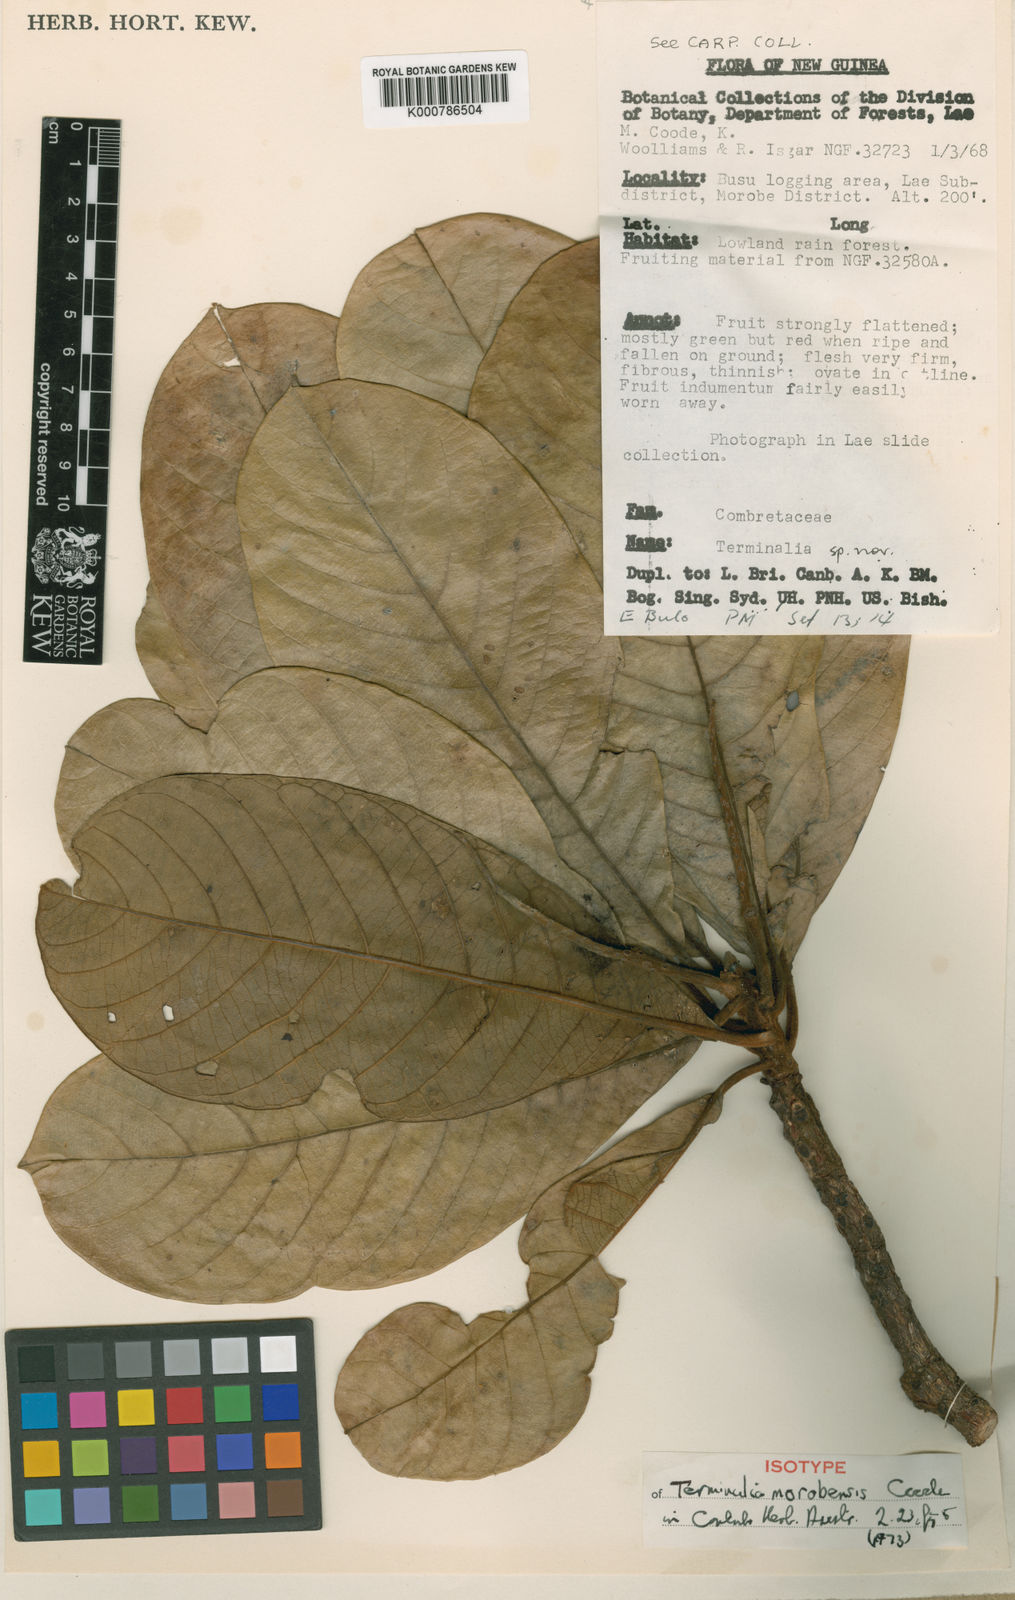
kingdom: Plantae
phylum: Tracheophyta
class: Magnoliopsida
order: Myrtales
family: Combretaceae
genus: Terminalia
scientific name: Terminalia morobensis
